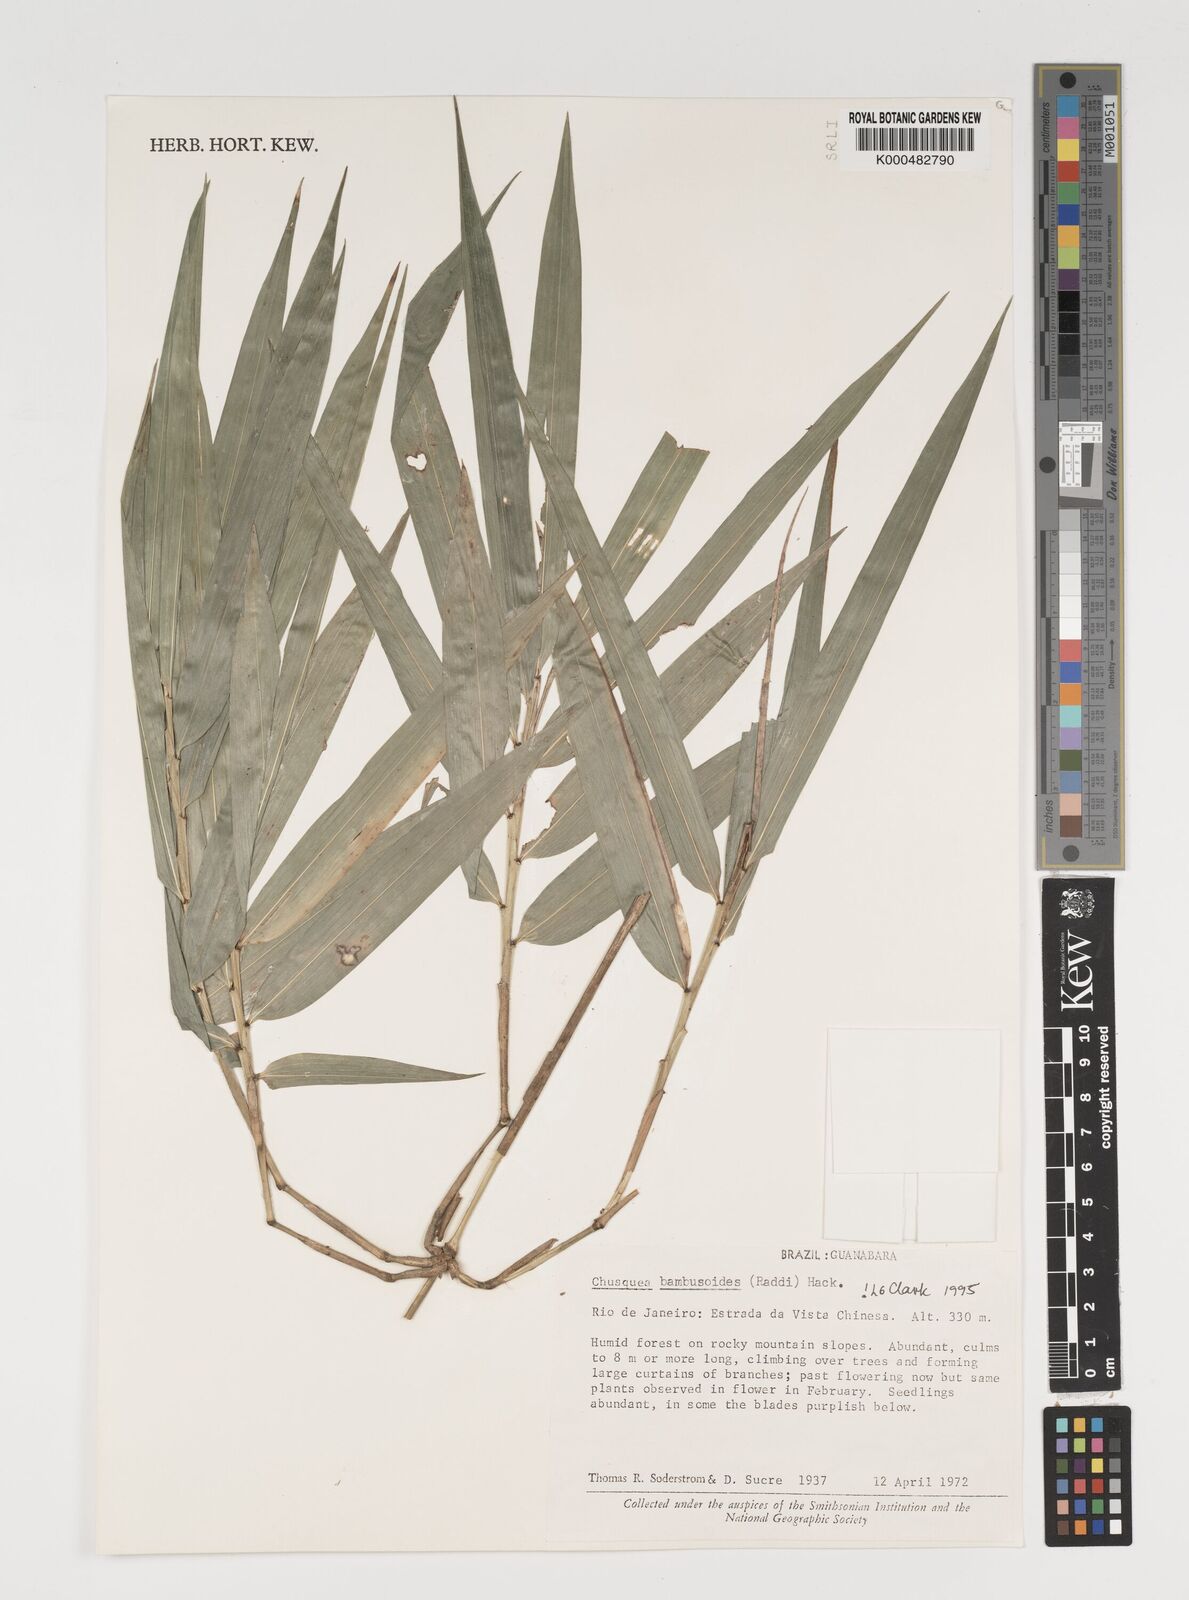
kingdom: Plantae
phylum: Tracheophyta
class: Liliopsida
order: Poales
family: Poaceae
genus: Chusquea
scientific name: Chusquea bambusoides
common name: Brazil scrambling bamboo
